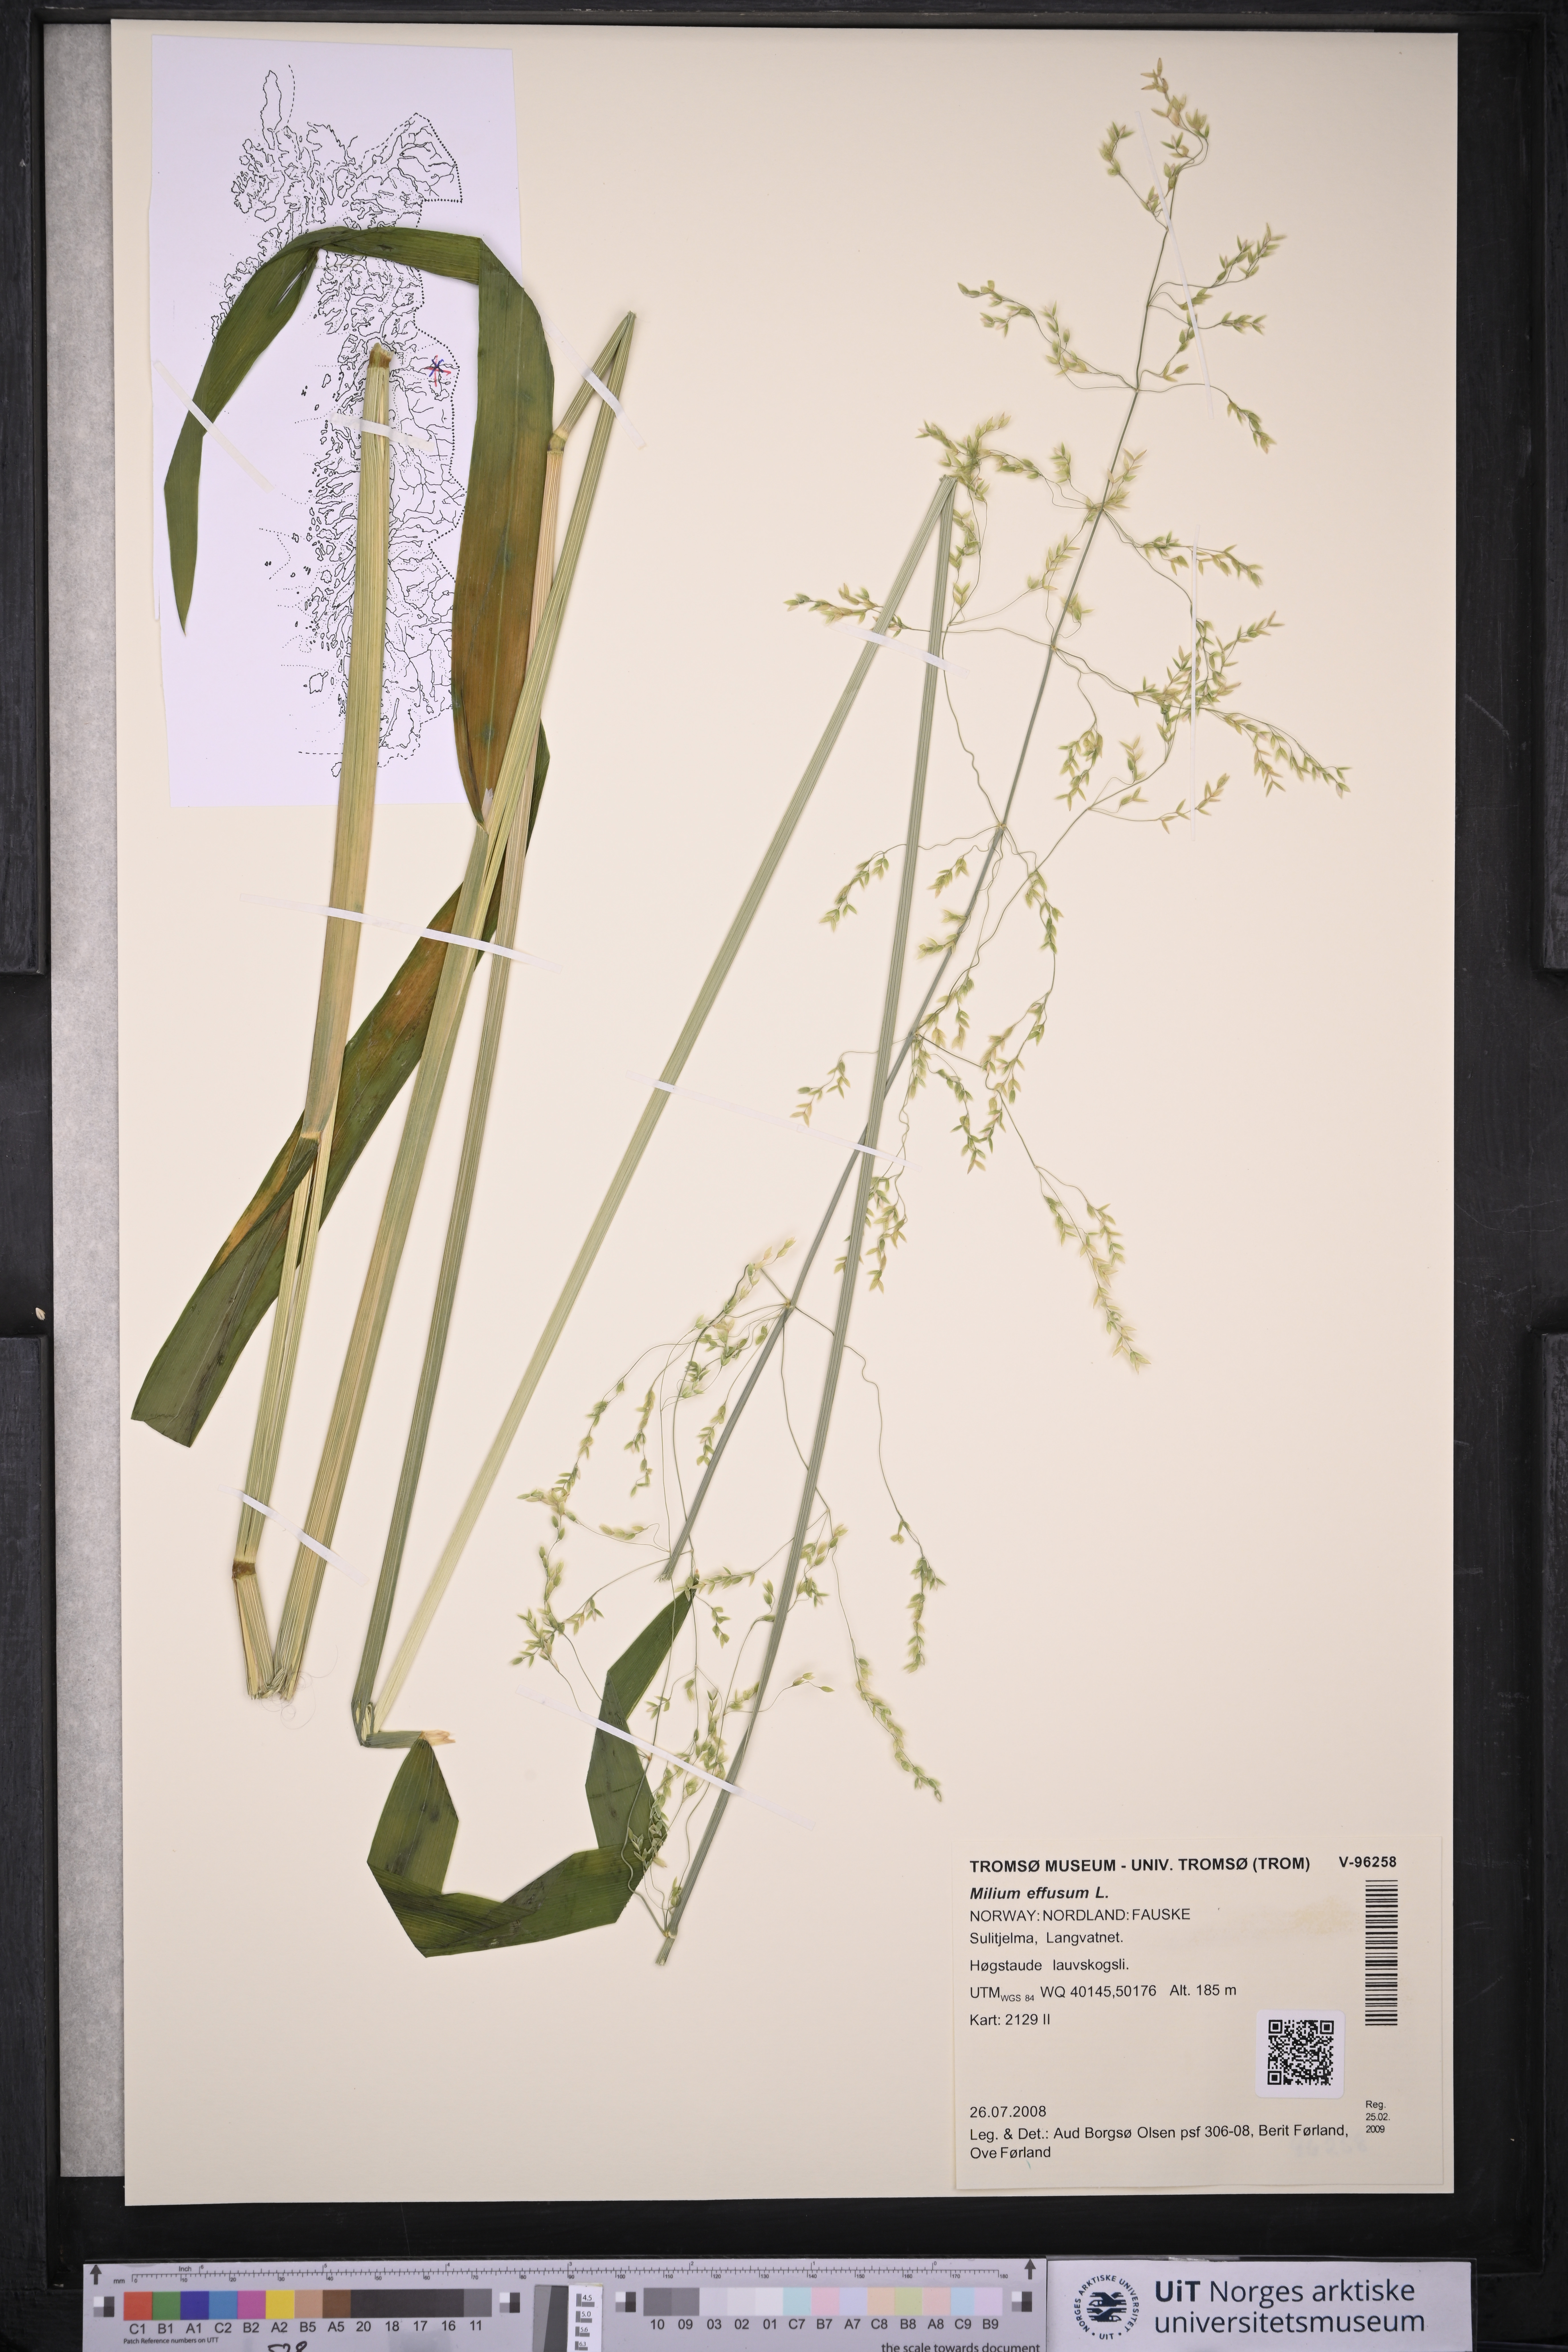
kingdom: Plantae
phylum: Tracheophyta
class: Liliopsida
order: Poales
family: Poaceae
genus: Milium
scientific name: Milium effusum
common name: Wood millet
